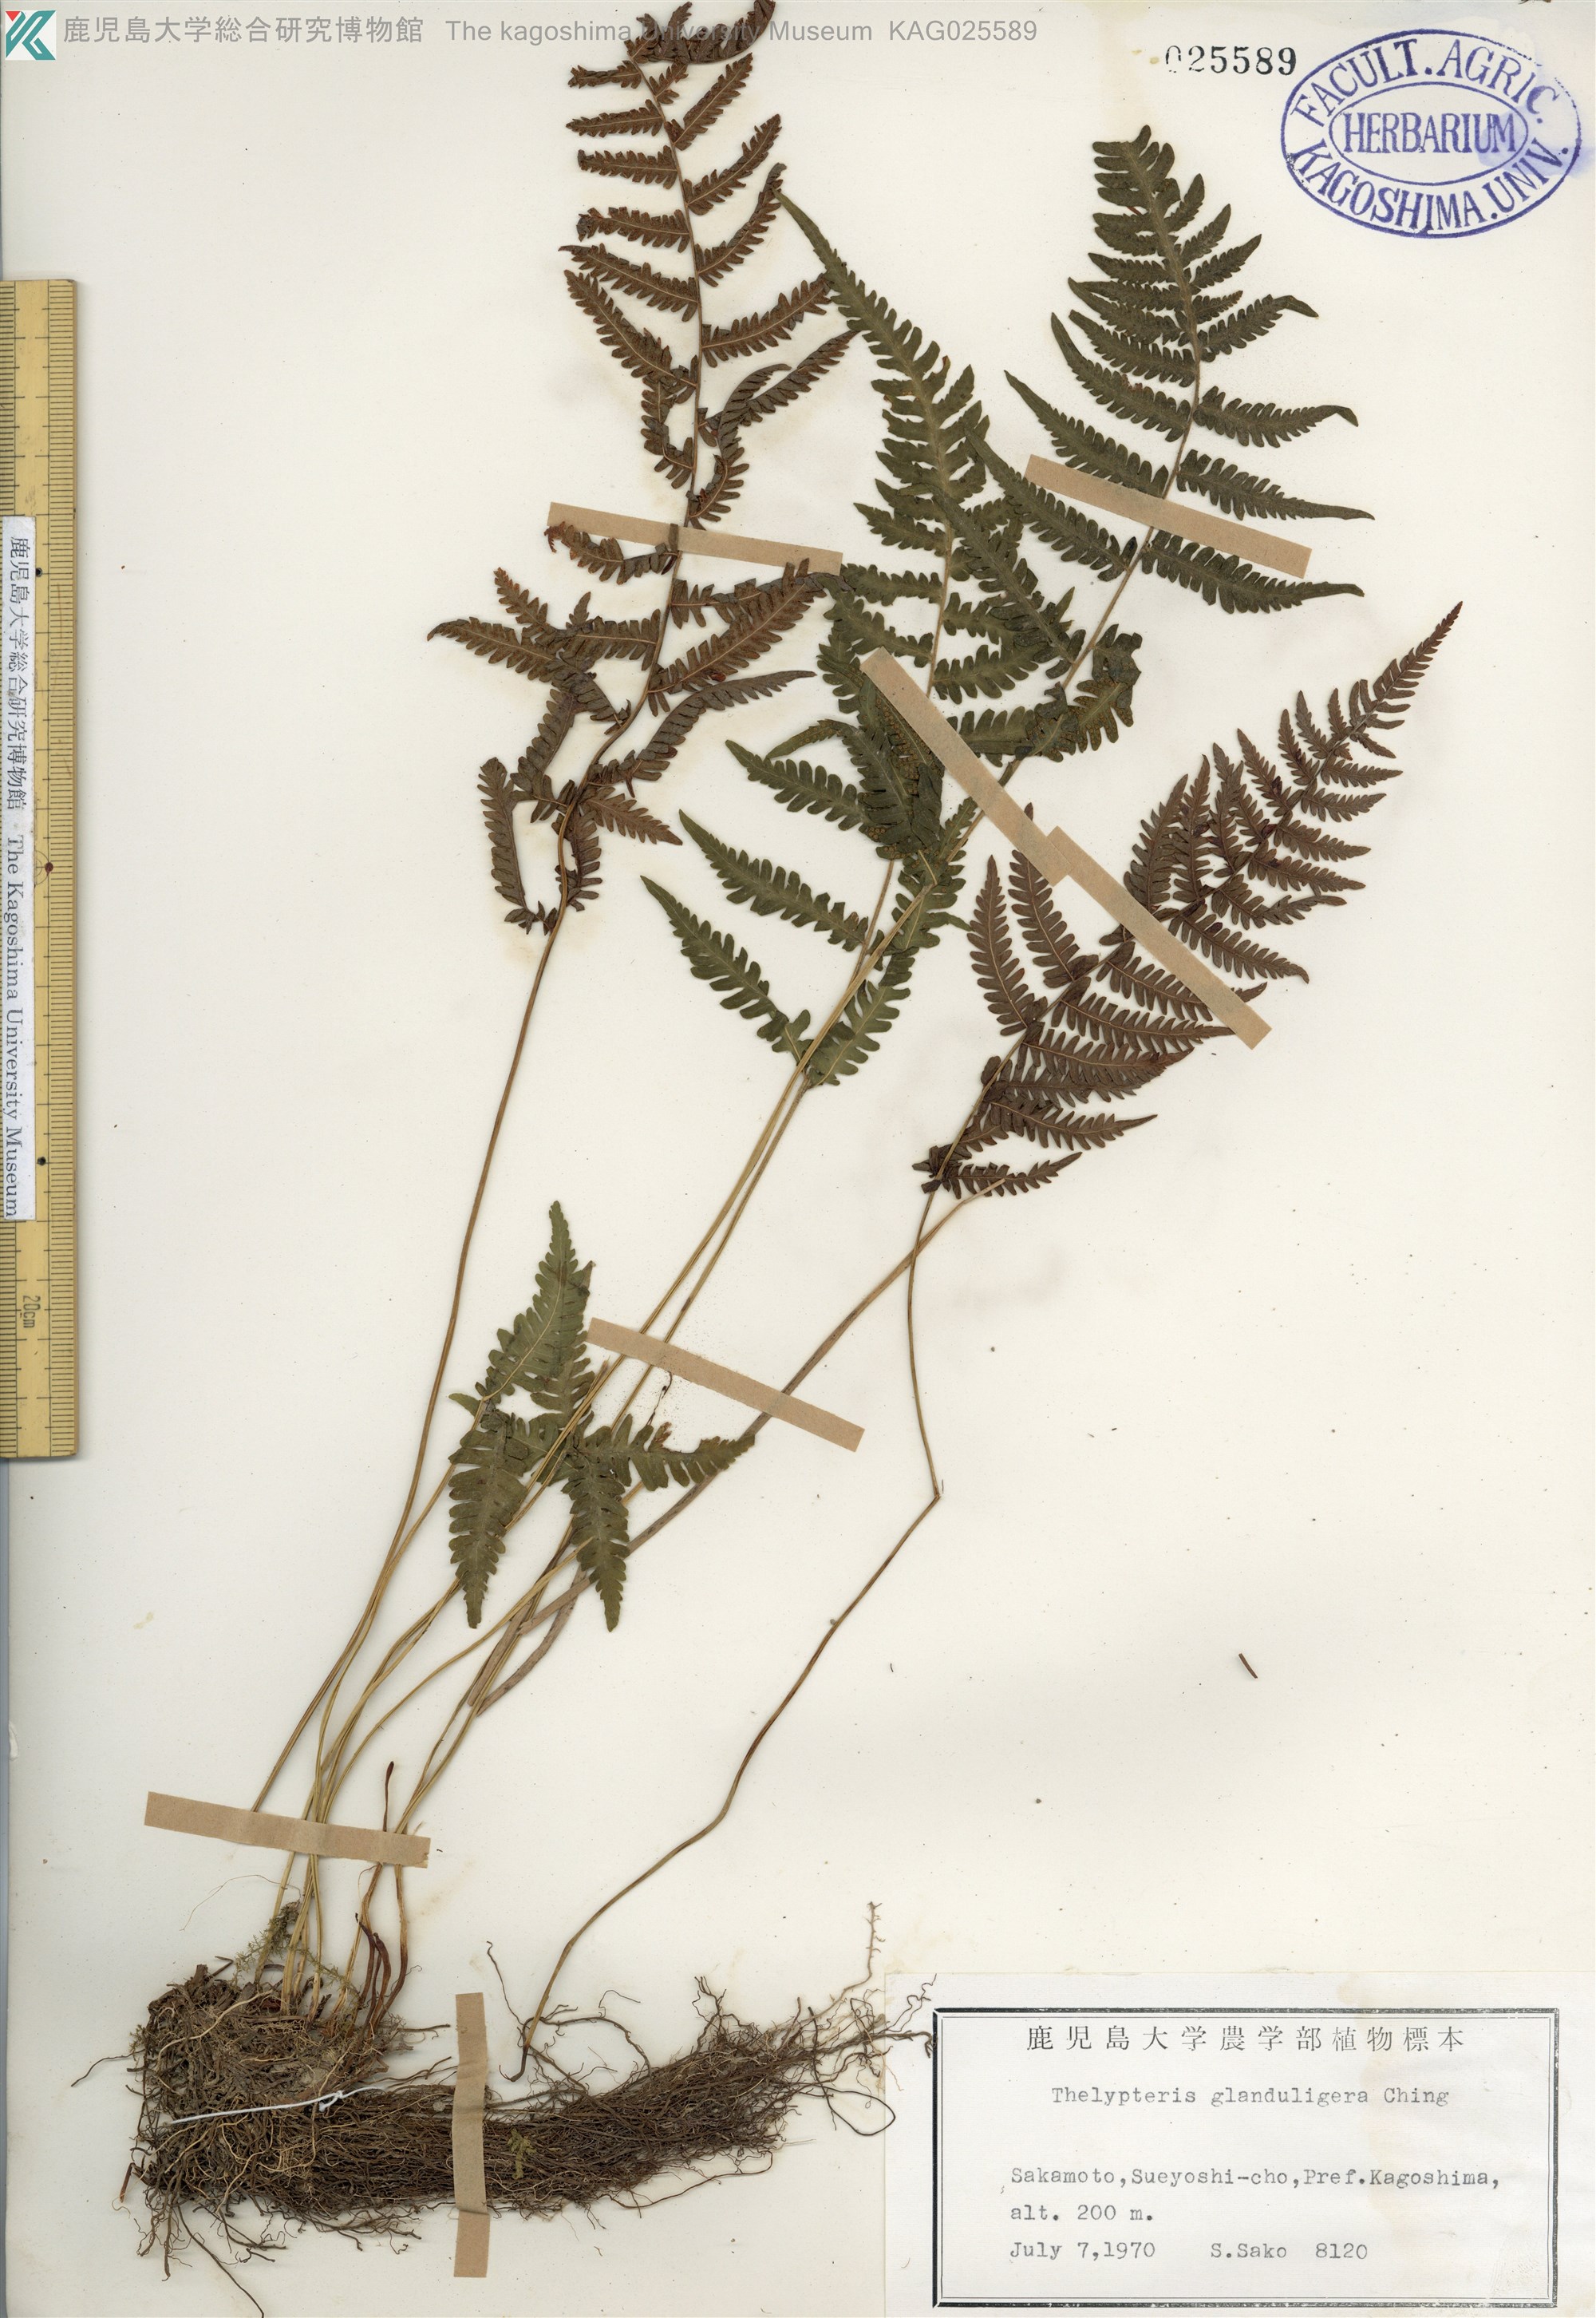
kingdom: Plantae
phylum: Tracheophyta
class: Polypodiopsida
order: Polypodiales
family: Thelypteridaceae
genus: Amauropelta
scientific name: Amauropelta glanduligera
